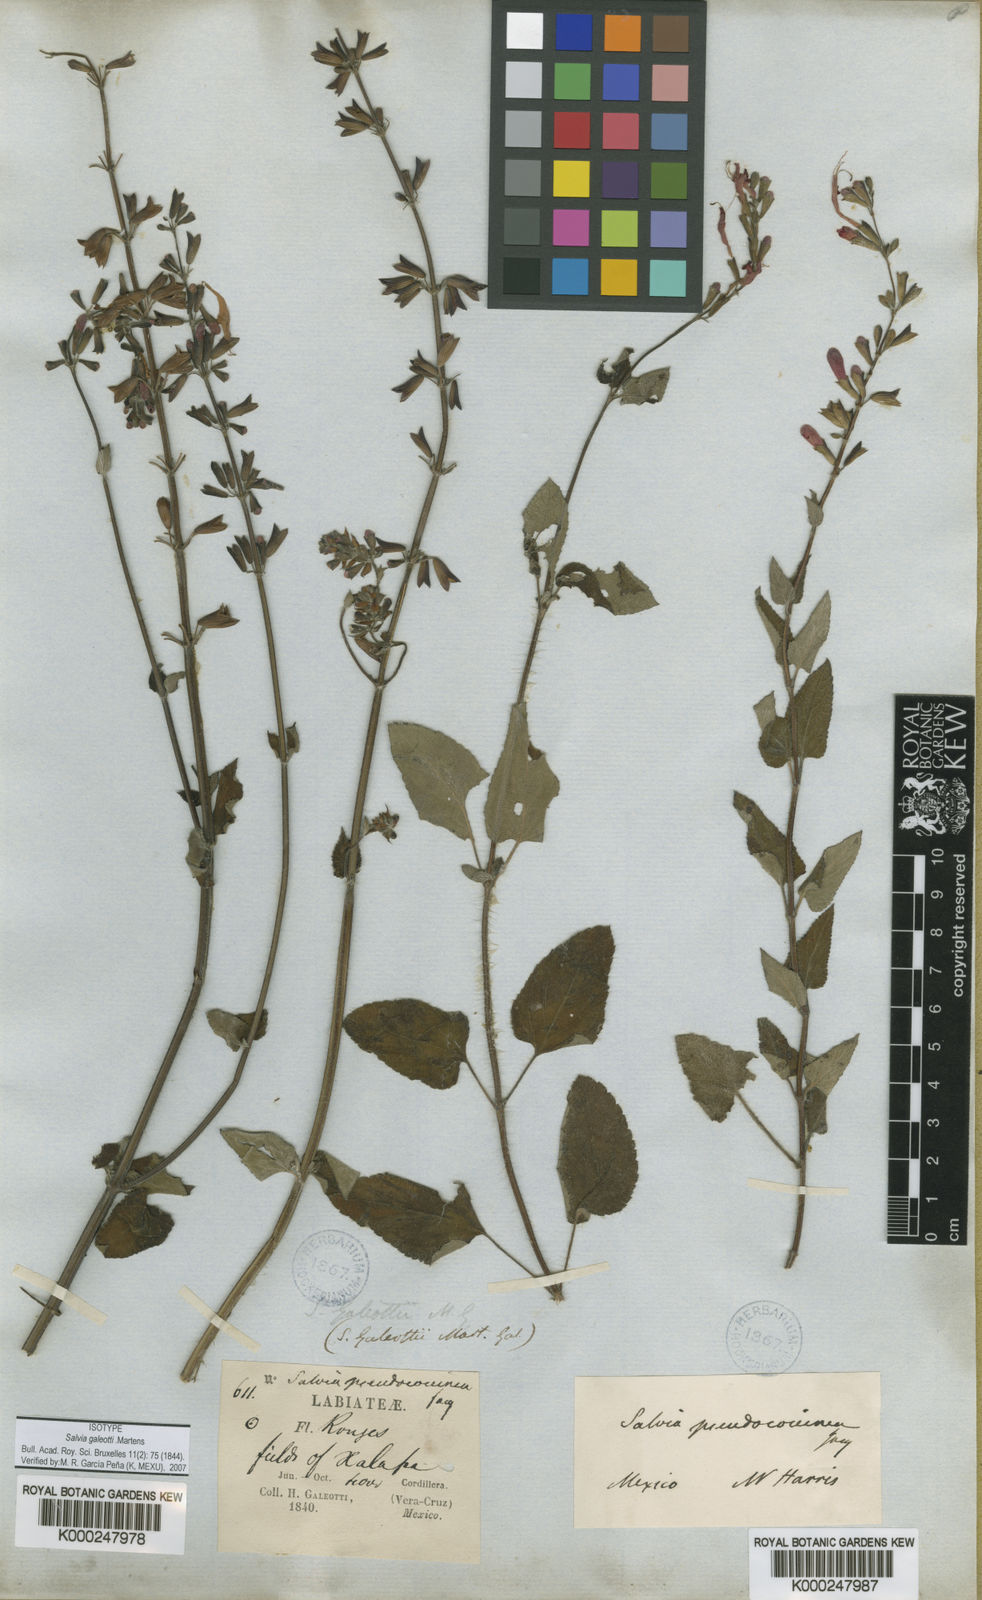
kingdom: Plantae
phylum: Tracheophyta
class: Magnoliopsida
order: Lamiales
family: Lamiaceae
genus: Salvia
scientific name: Salvia coccinea
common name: Blood sage
